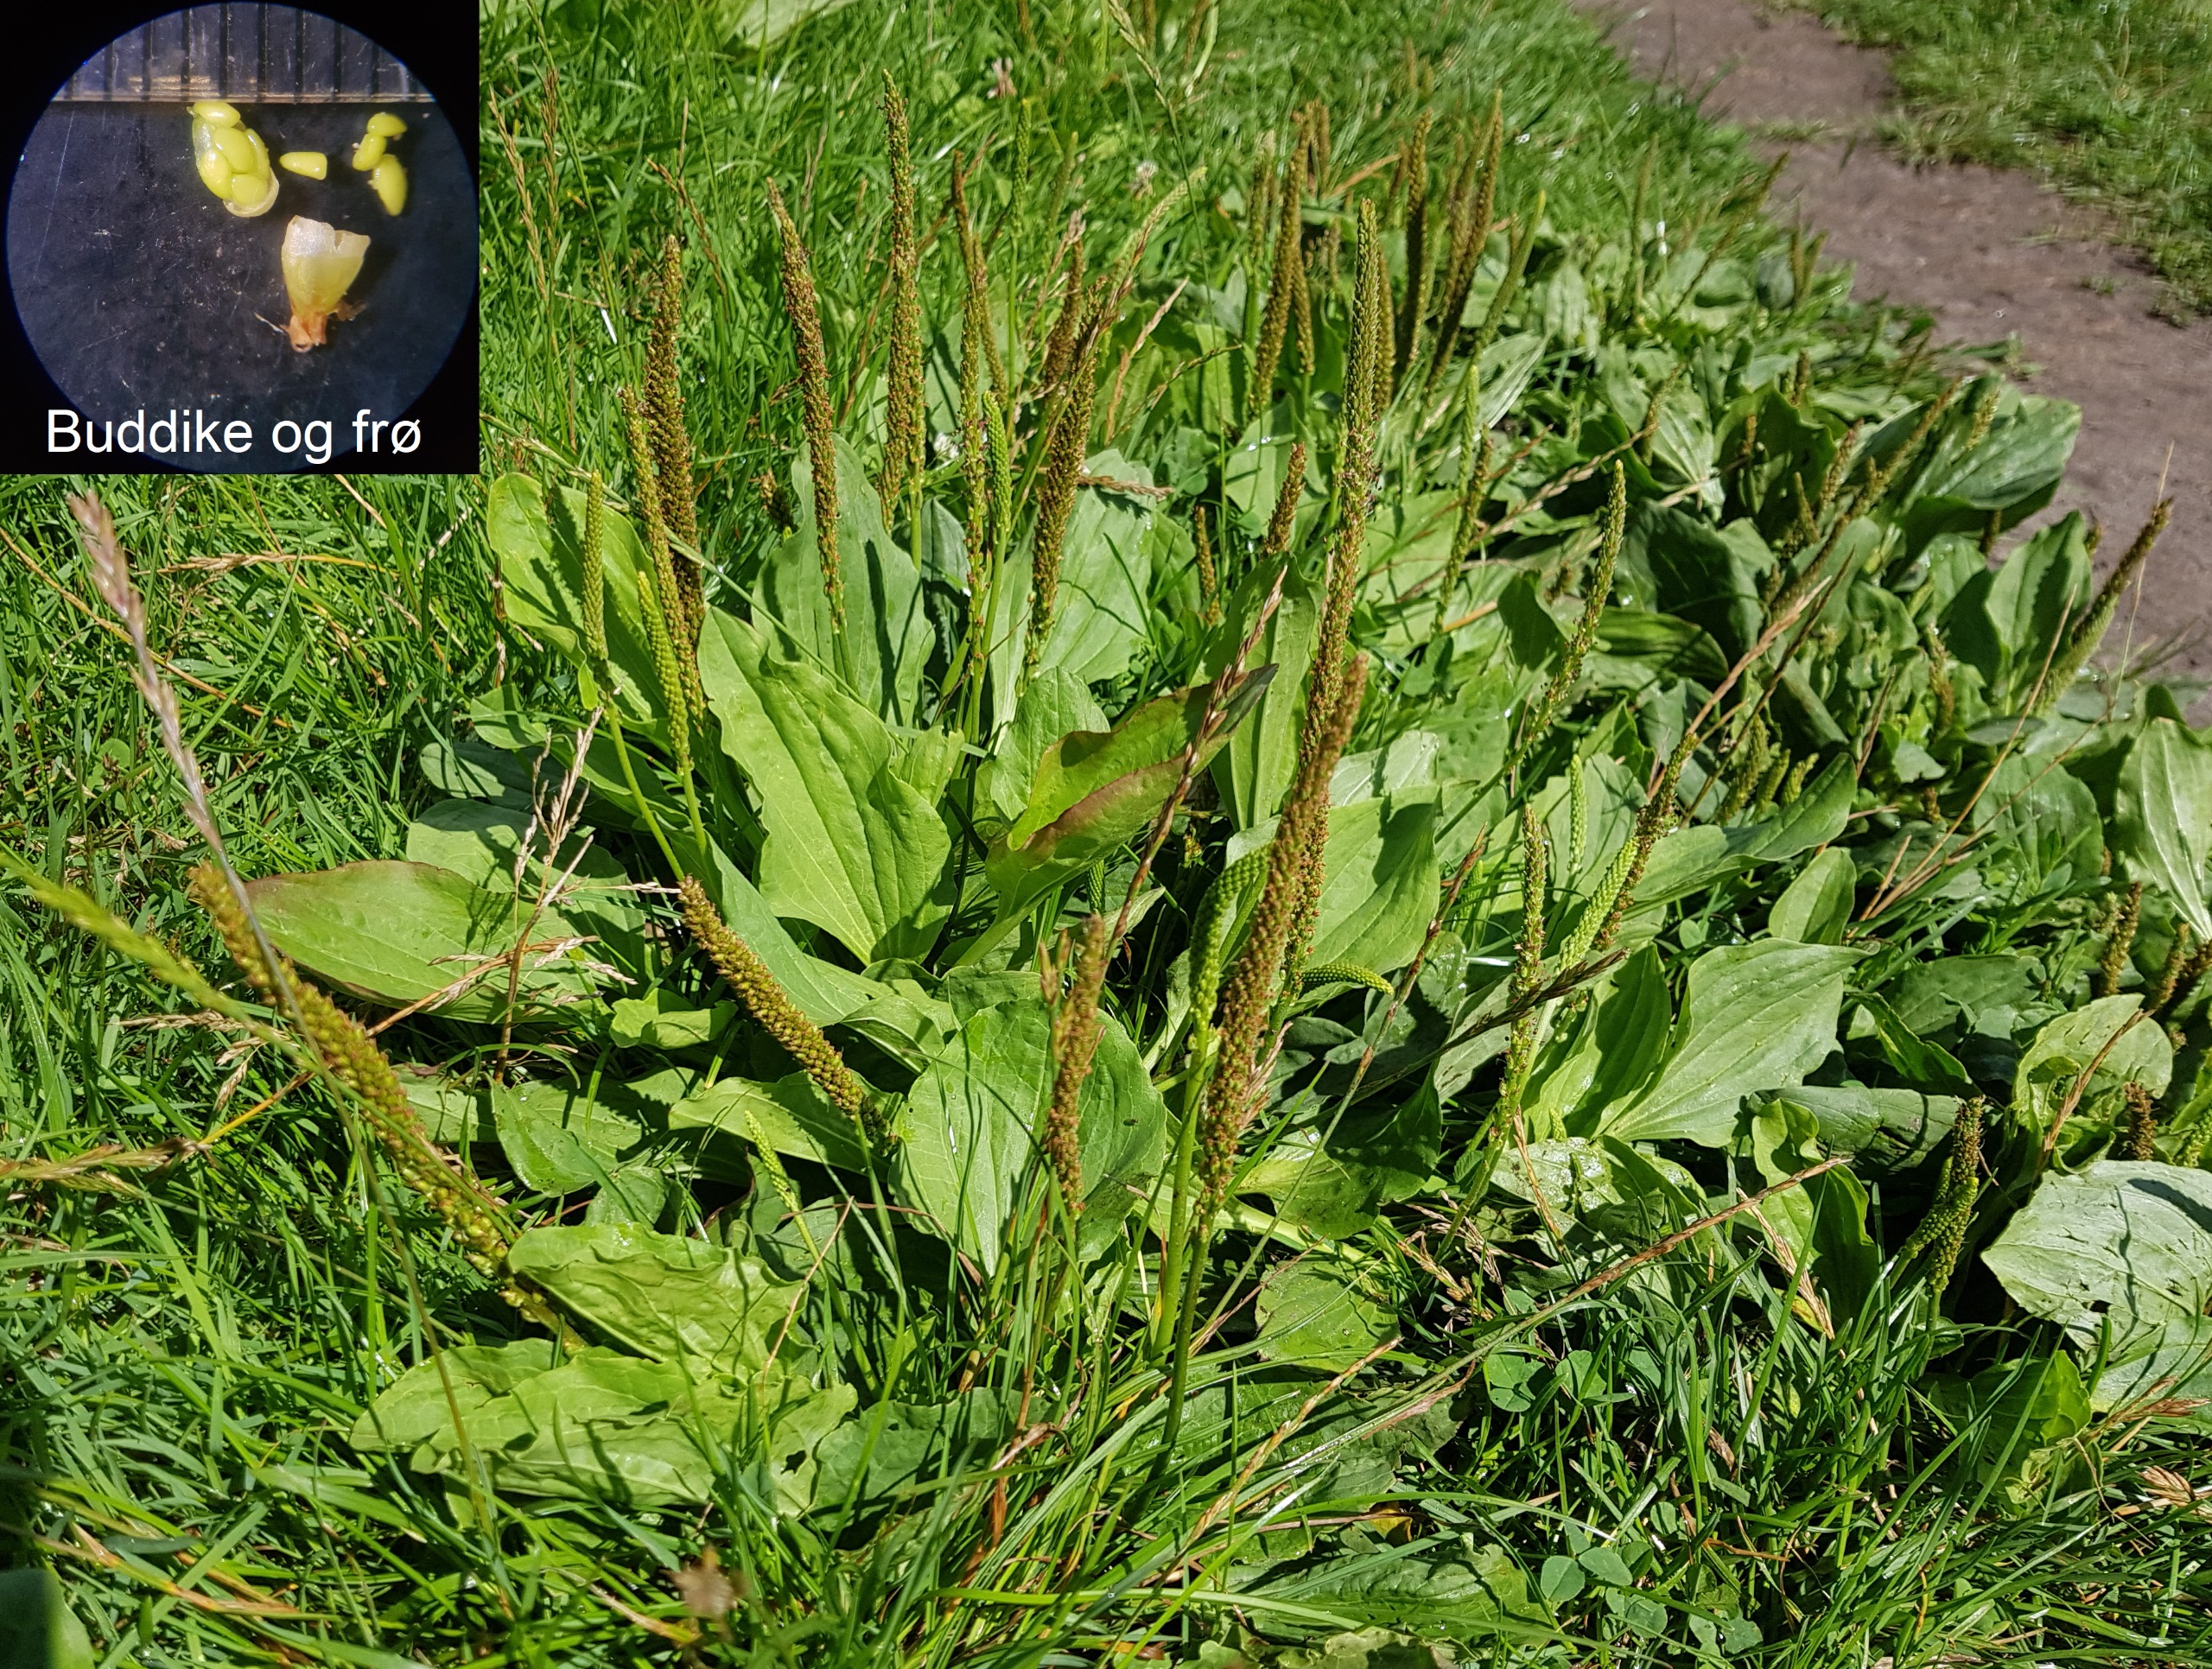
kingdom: Plantae
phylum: Tracheophyta
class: Magnoliopsida
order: Lamiales
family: Plantaginaceae
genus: Plantago
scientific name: Plantago major
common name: Glat vejbred (underart)
